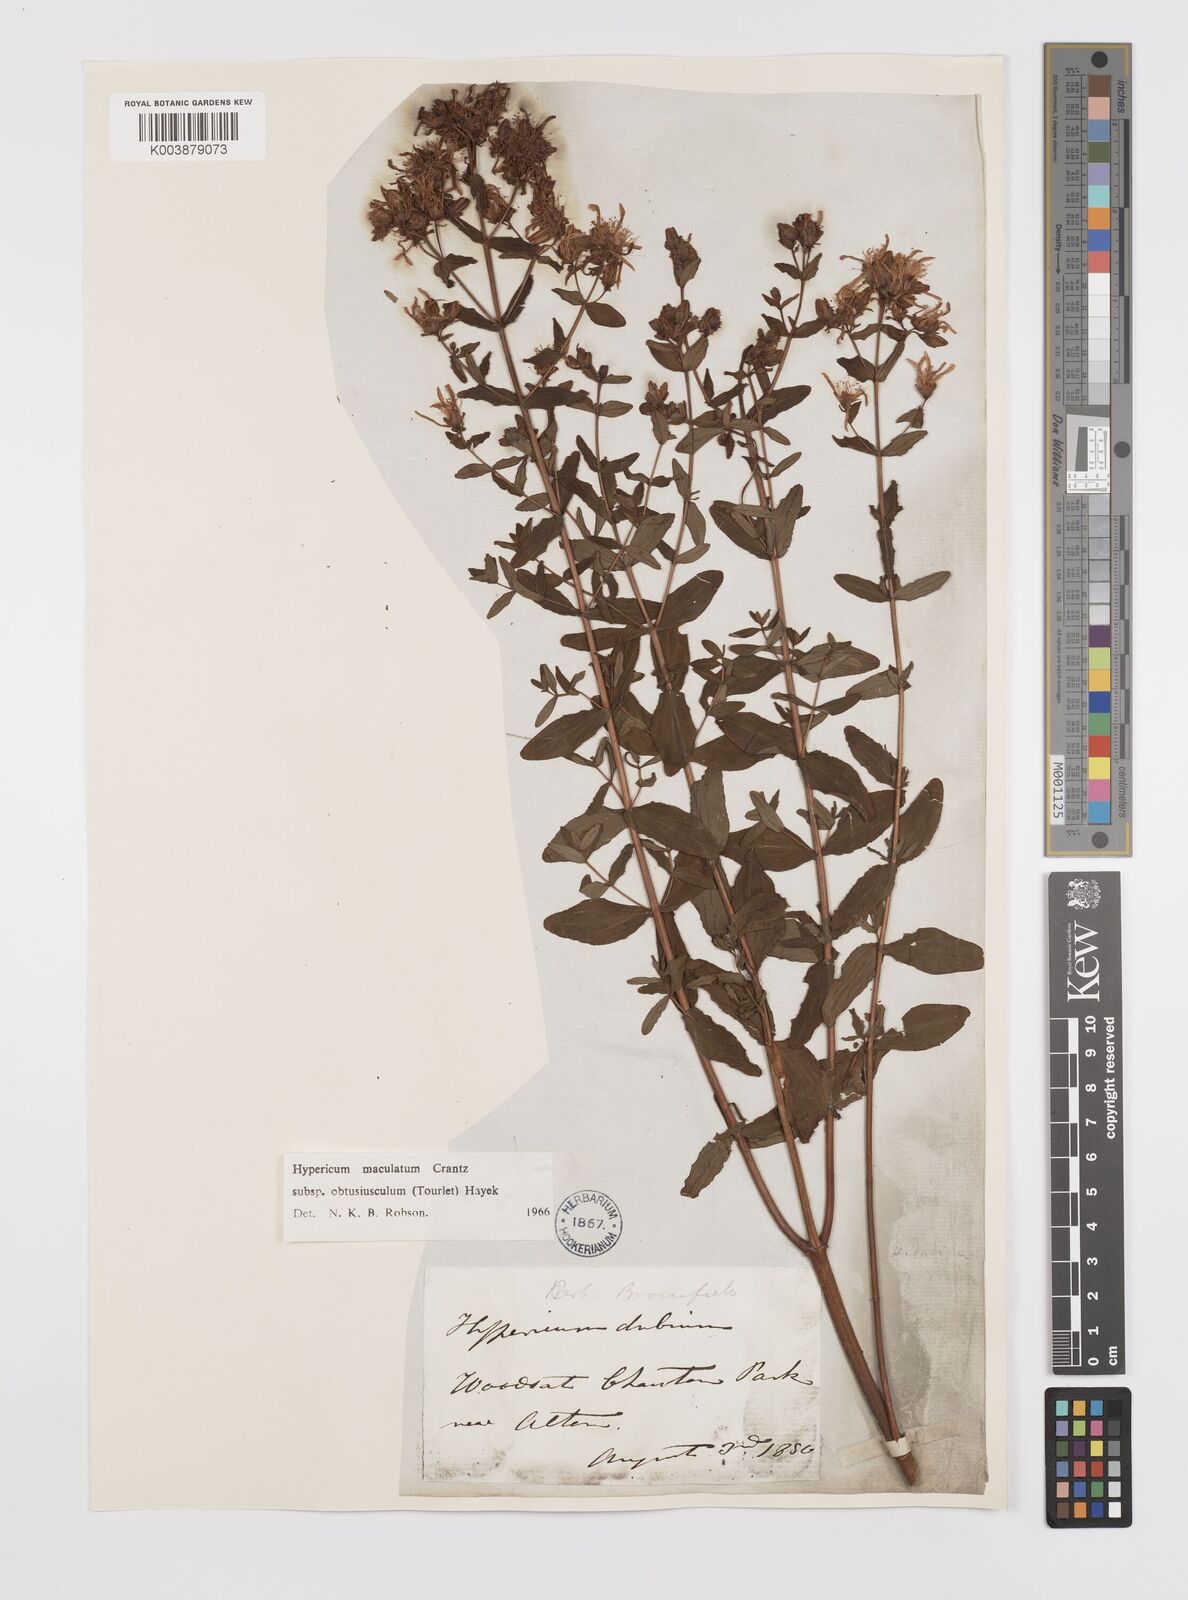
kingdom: Plantae
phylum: Tracheophyta
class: Magnoliopsida
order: Malpighiales
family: Hypericaceae
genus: Hypericum
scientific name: Hypericum dubium
